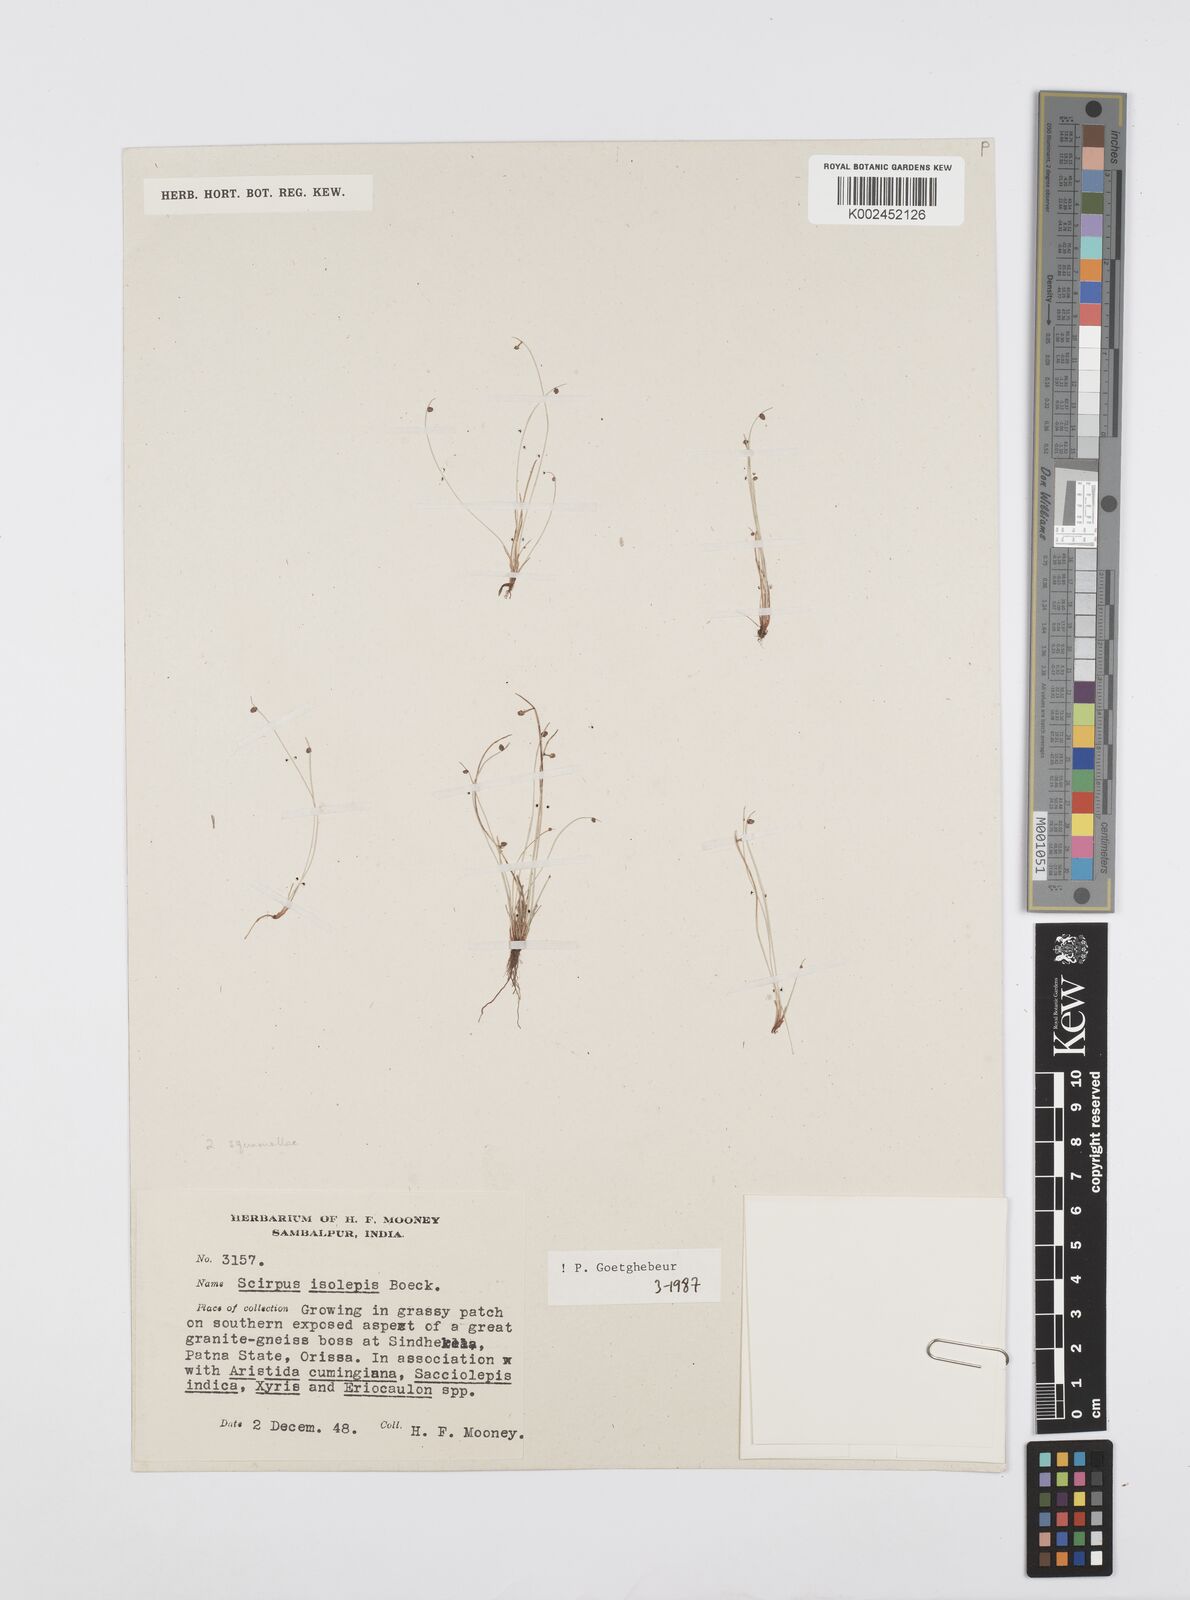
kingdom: Plantae
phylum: Tracheophyta
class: Liliopsida
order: Poales
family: Cyperaceae
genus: Cyperus
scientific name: Cyperus hemisphaericus
